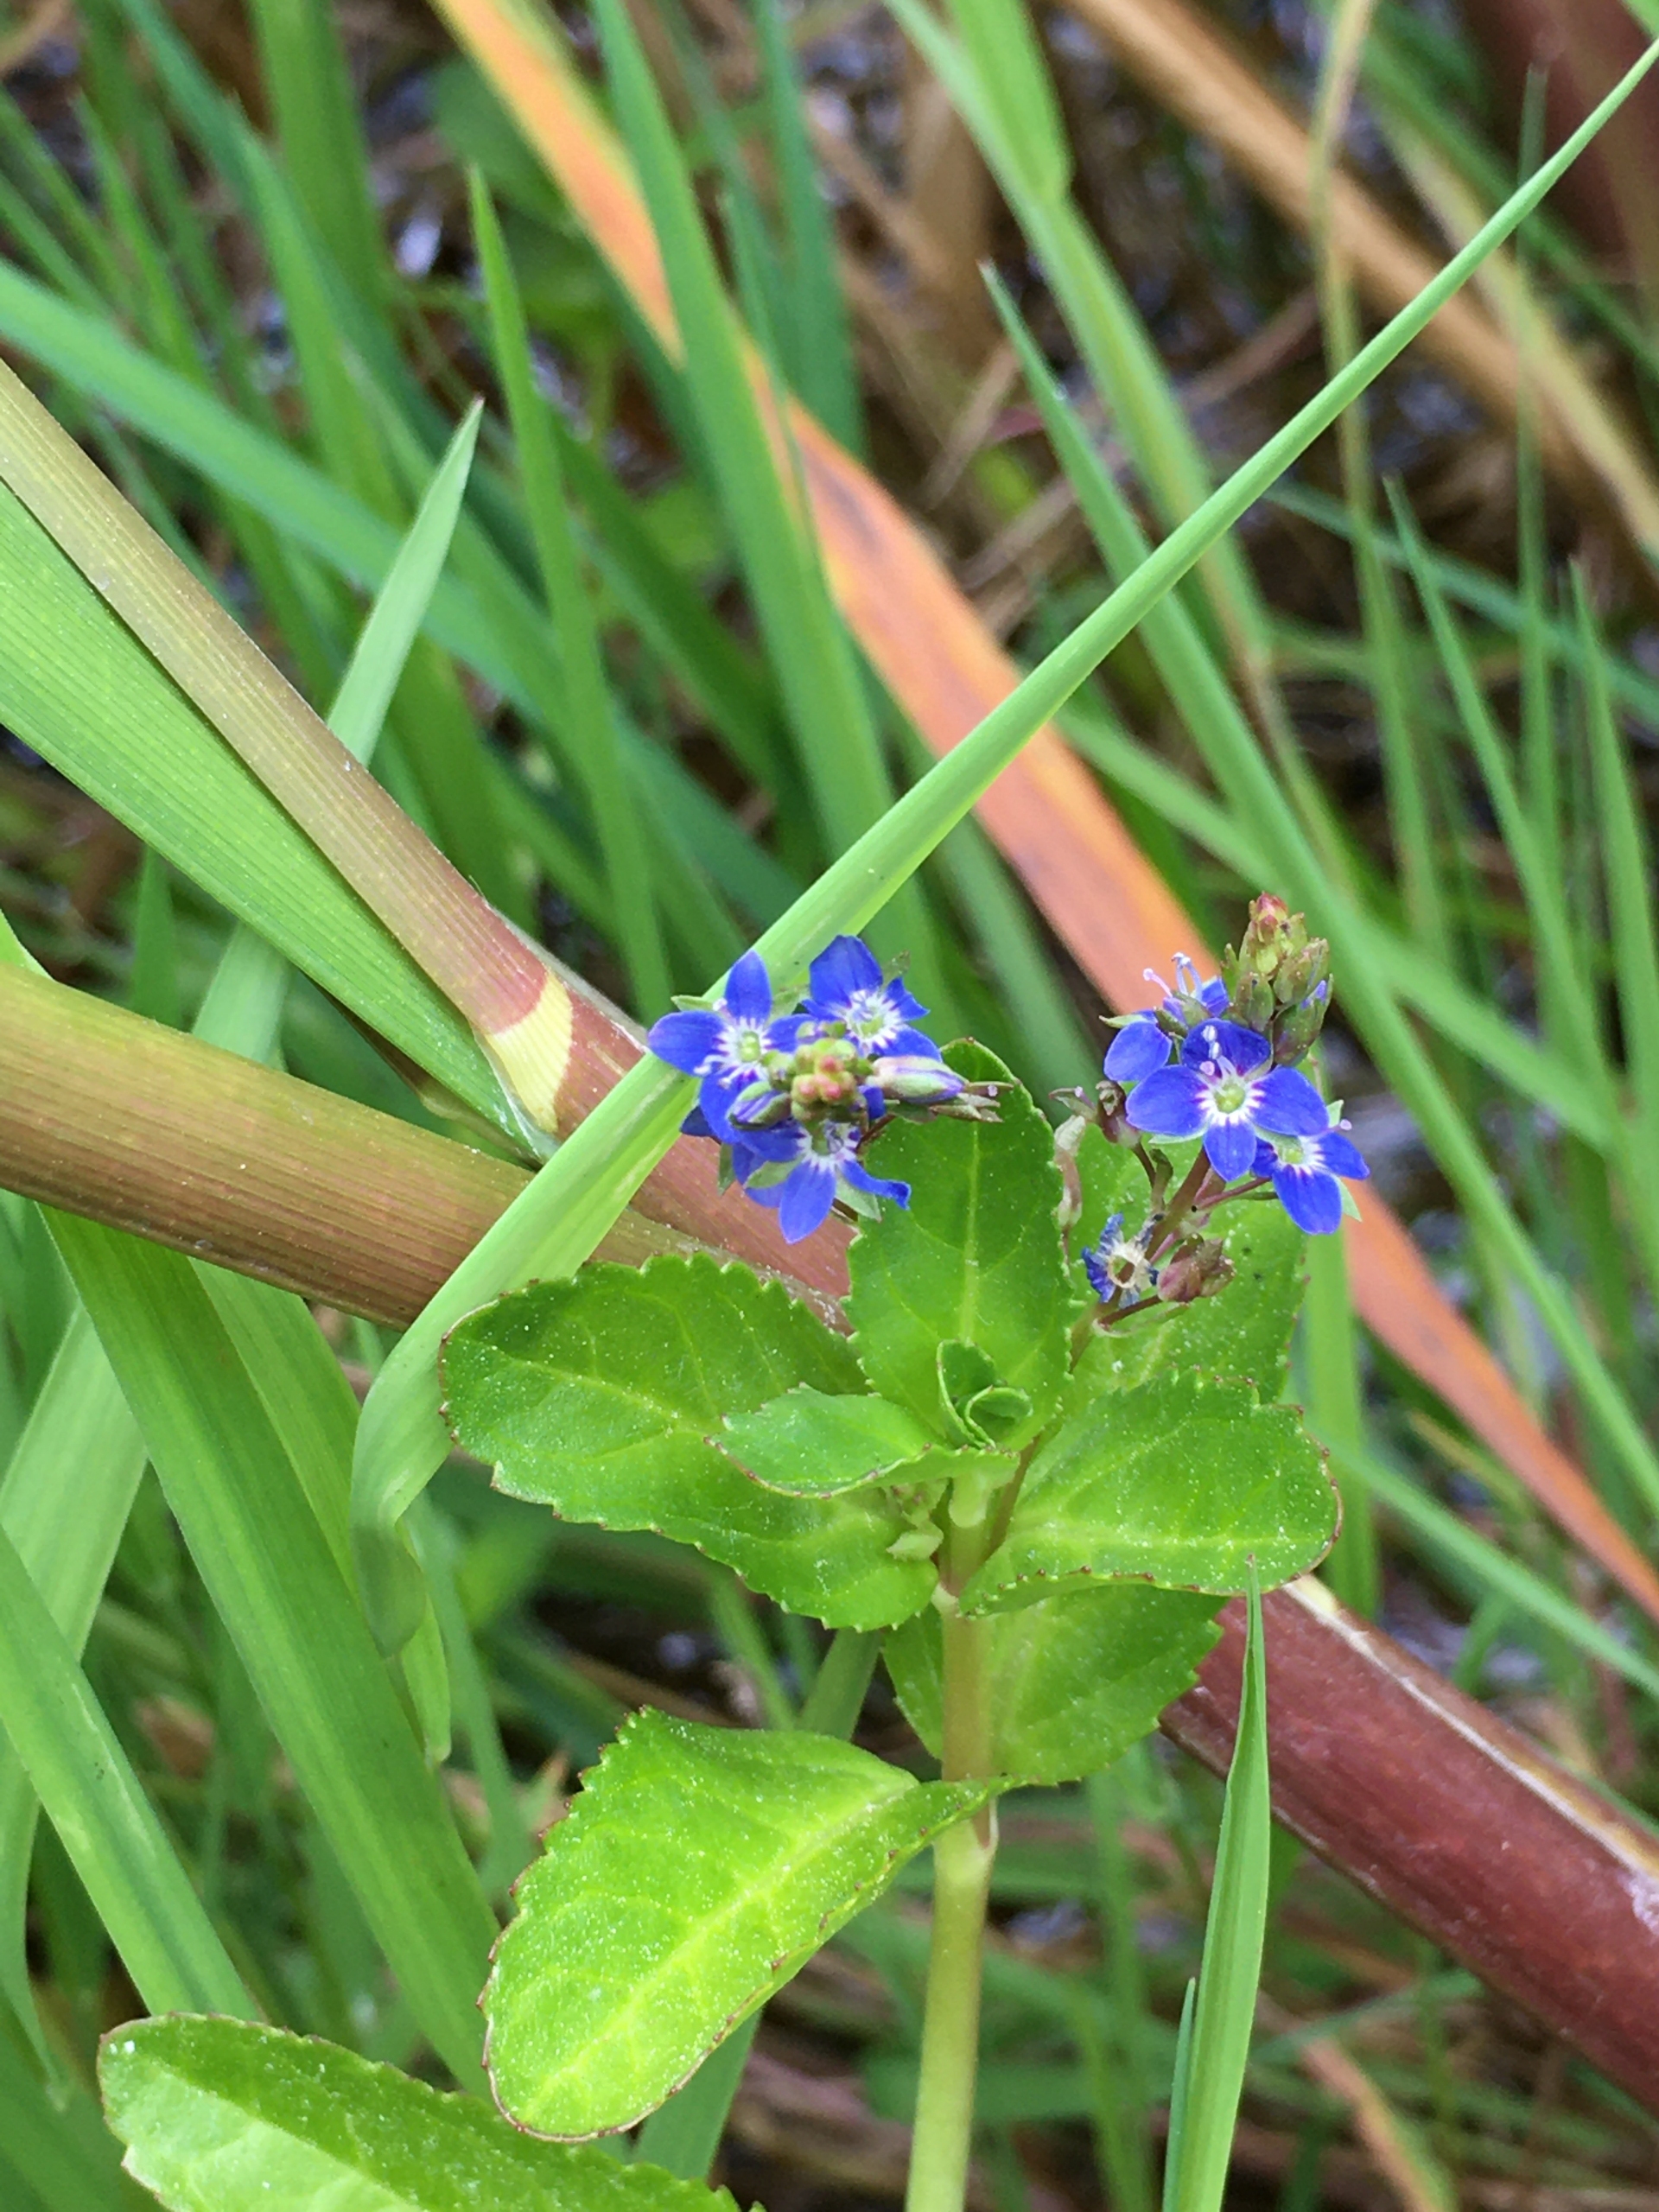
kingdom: Plantae
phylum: Tracheophyta
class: Magnoliopsida
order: Lamiales
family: Plantaginaceae
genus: Veronica
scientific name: Veronica beccabunga
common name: Tykbladet ærenpris
